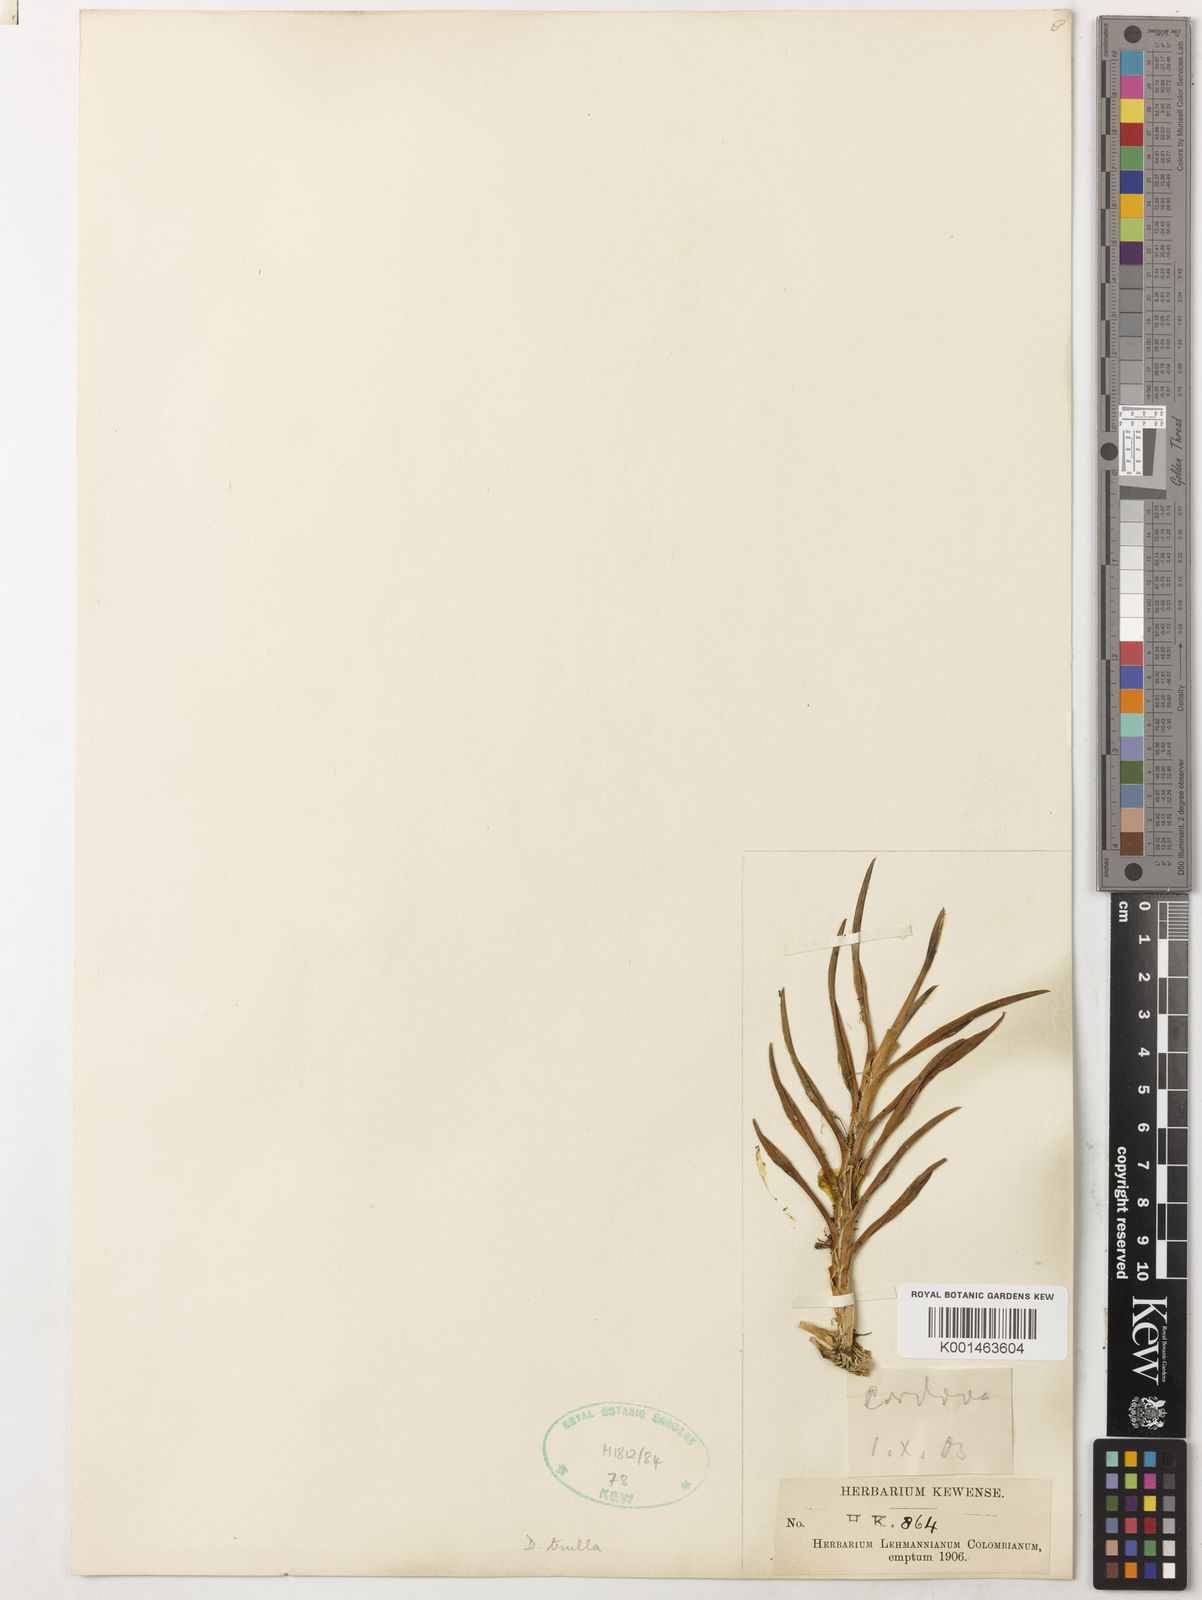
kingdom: Plantae
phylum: Tracheophyta
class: Liliopsida
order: Asparagales
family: Orchidaceae
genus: Dichaea
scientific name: Dichaea trulla
